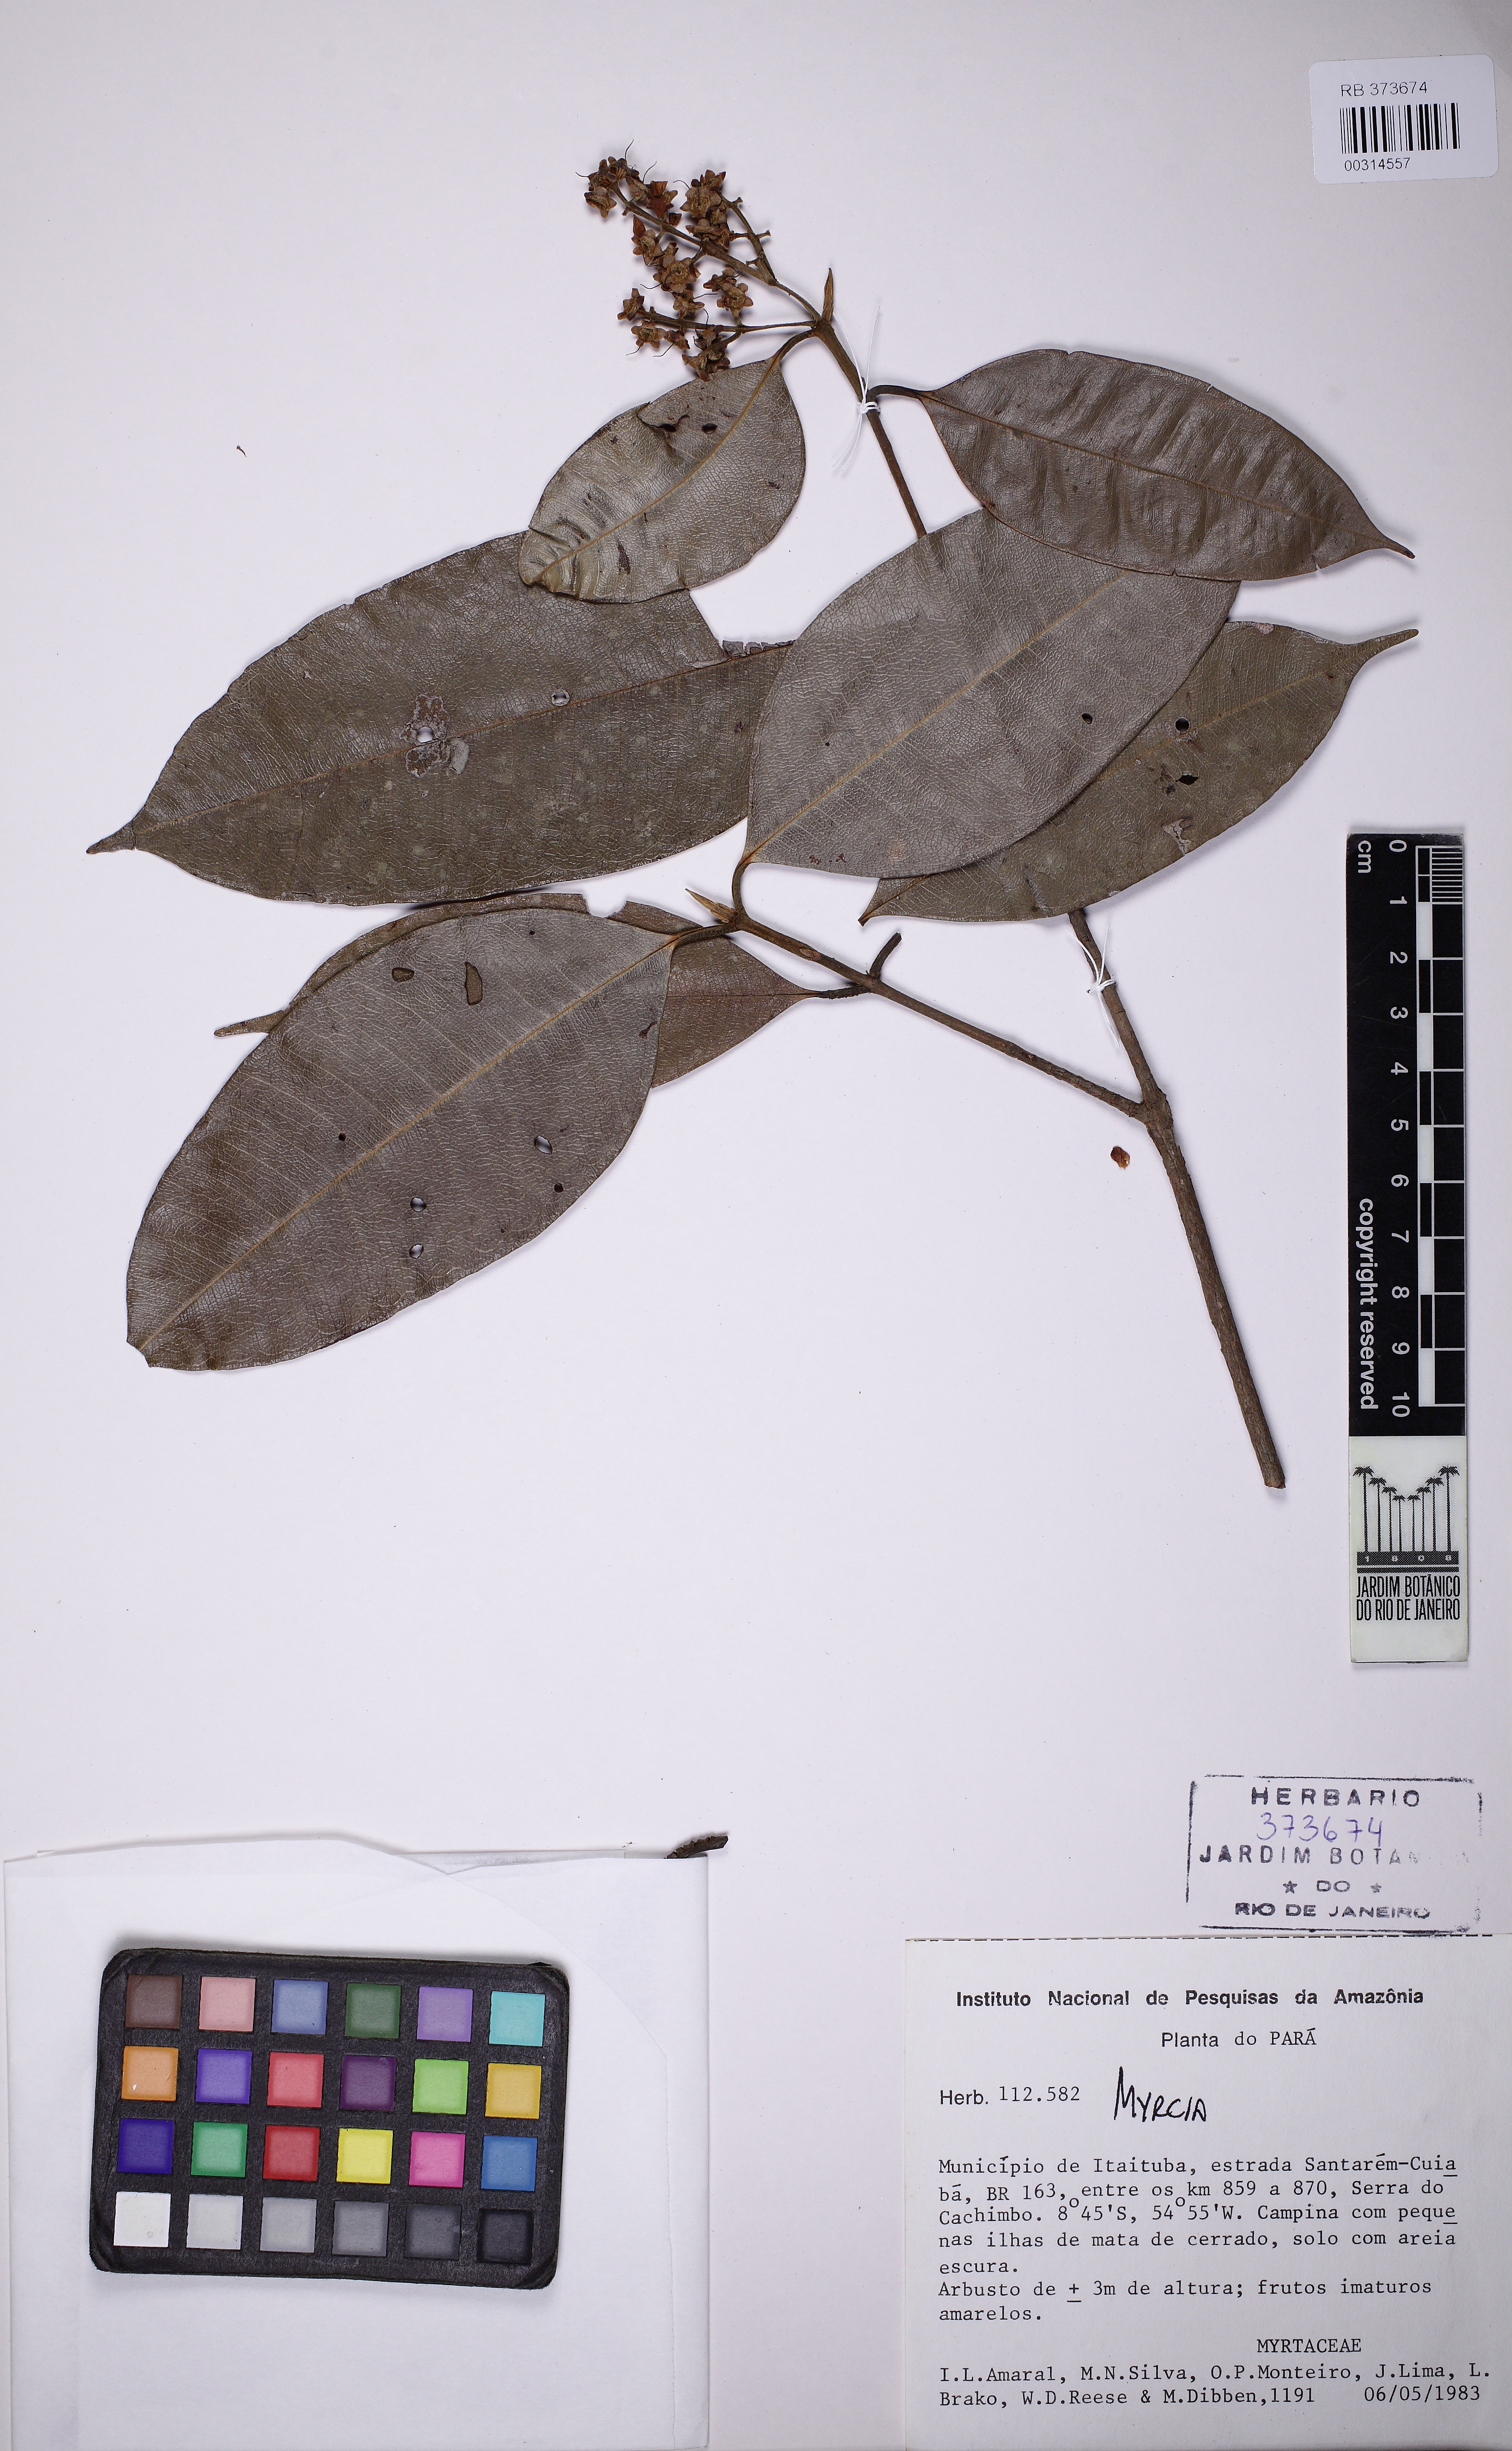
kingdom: Plantae
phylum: Tracheophyta
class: Magnoliopsida
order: Myrtales
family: Myrtaceae
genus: Myrcia
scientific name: Myrcia
